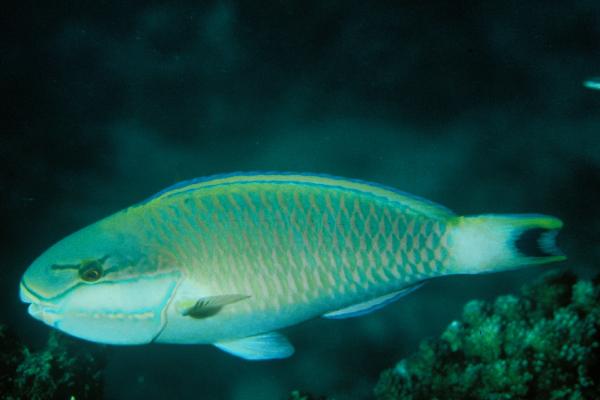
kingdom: Animalia
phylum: Chordata
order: Perciformes
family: Scaridae
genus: Chlorurus
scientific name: Chlorurus atrilunula
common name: Bluemoon parrotfish
